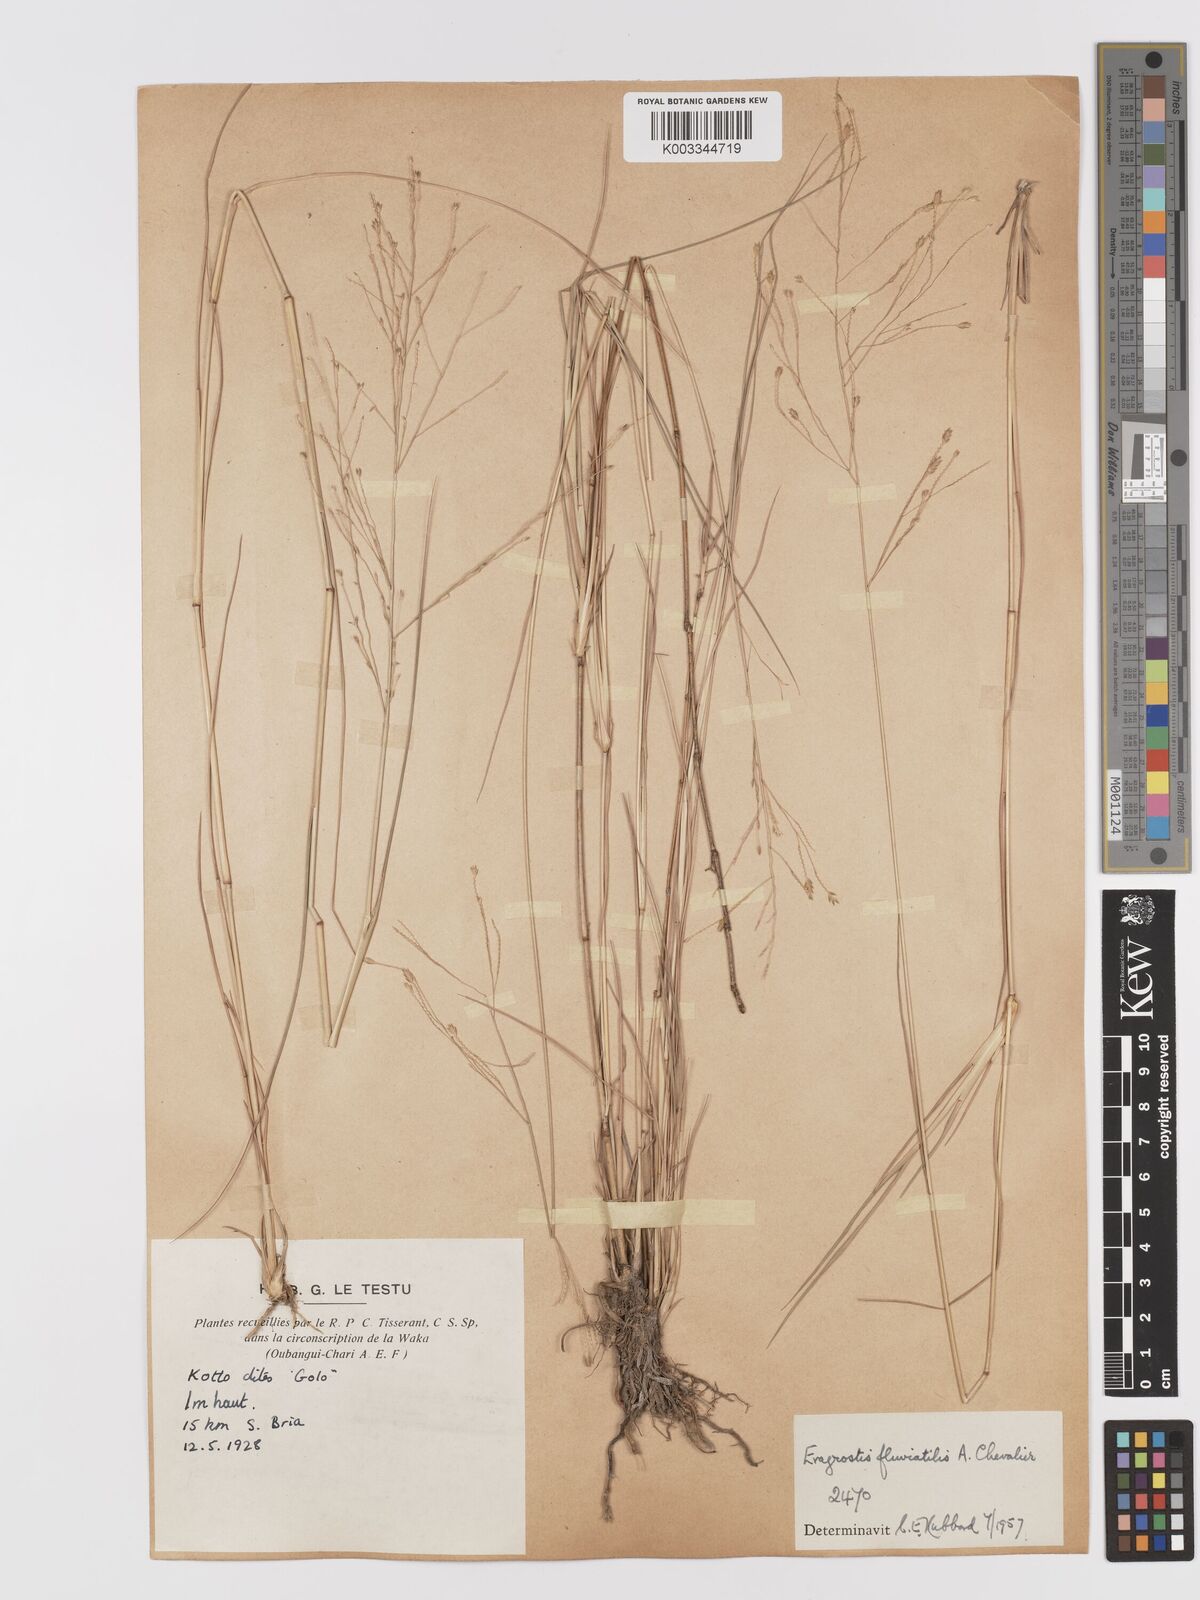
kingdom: Plantae
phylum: Tracheophyta
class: Liliopsida
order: Poales
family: Poaceae
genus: Eragrostis
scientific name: Eragrostis barteri
